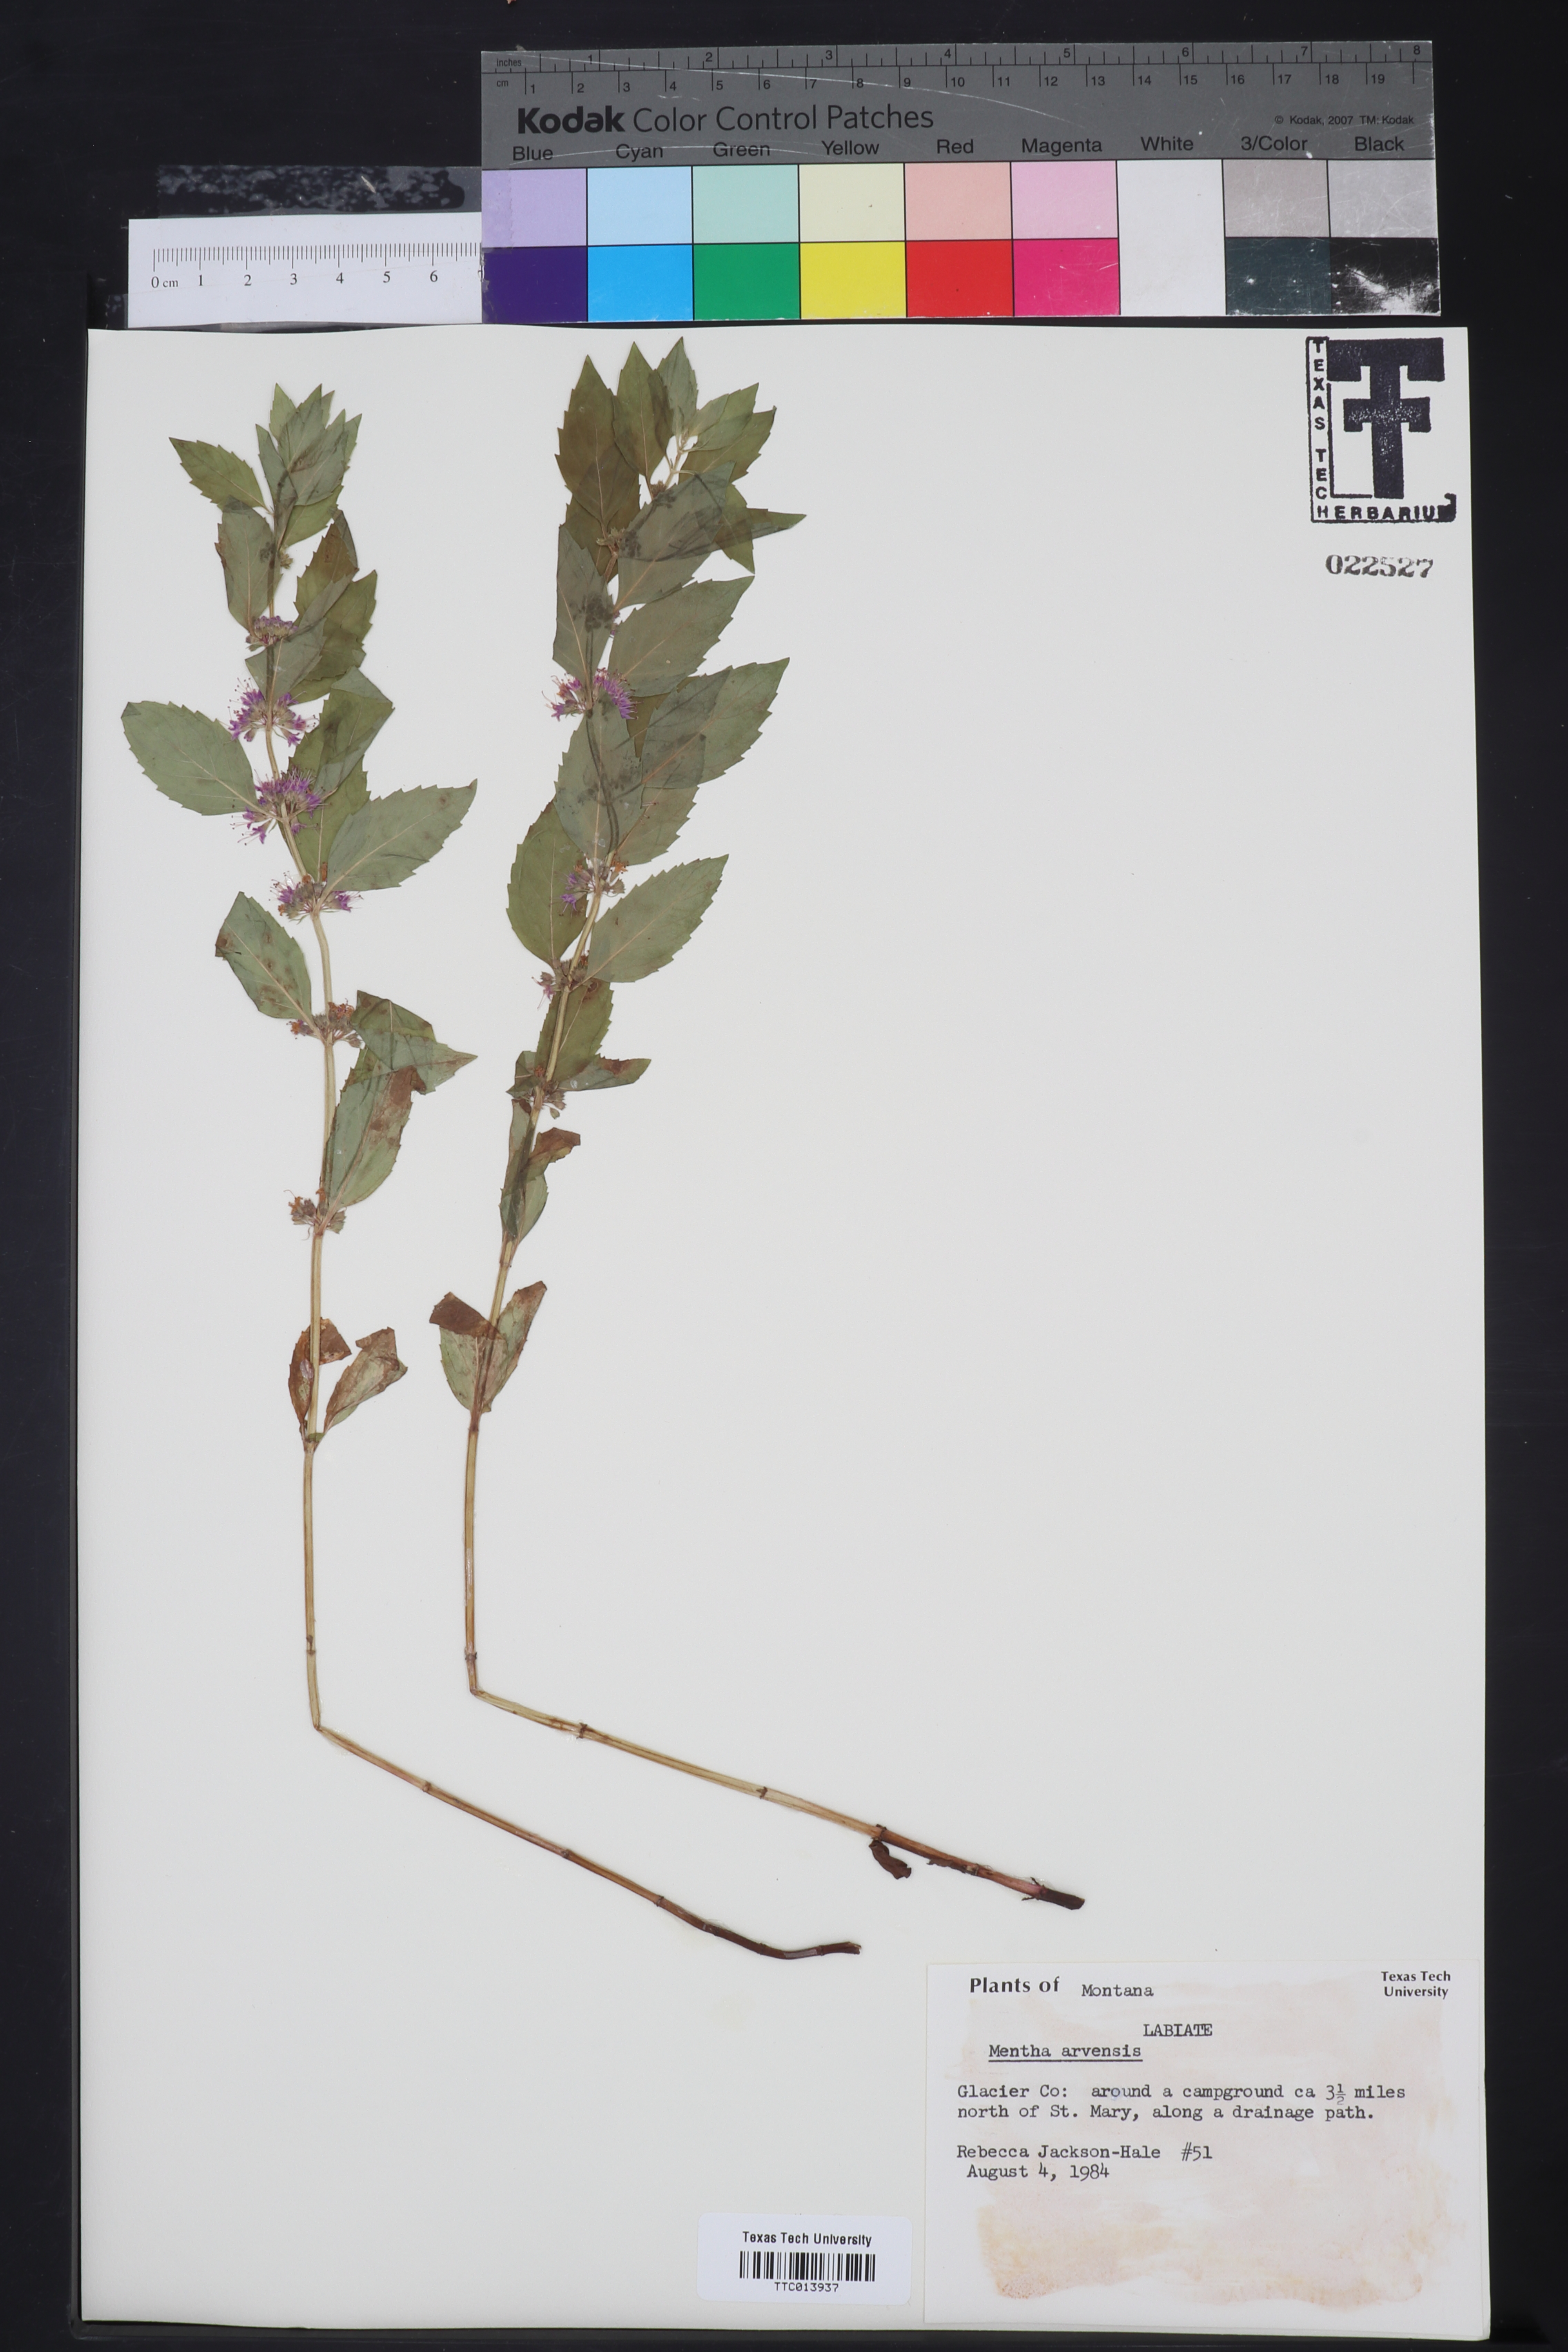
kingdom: Plantae
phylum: Tracheophyta
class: Magnoliopsida
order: Lamiales
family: Lamiaceae
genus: Mentha
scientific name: Mentha arvensis
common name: Corn mint
